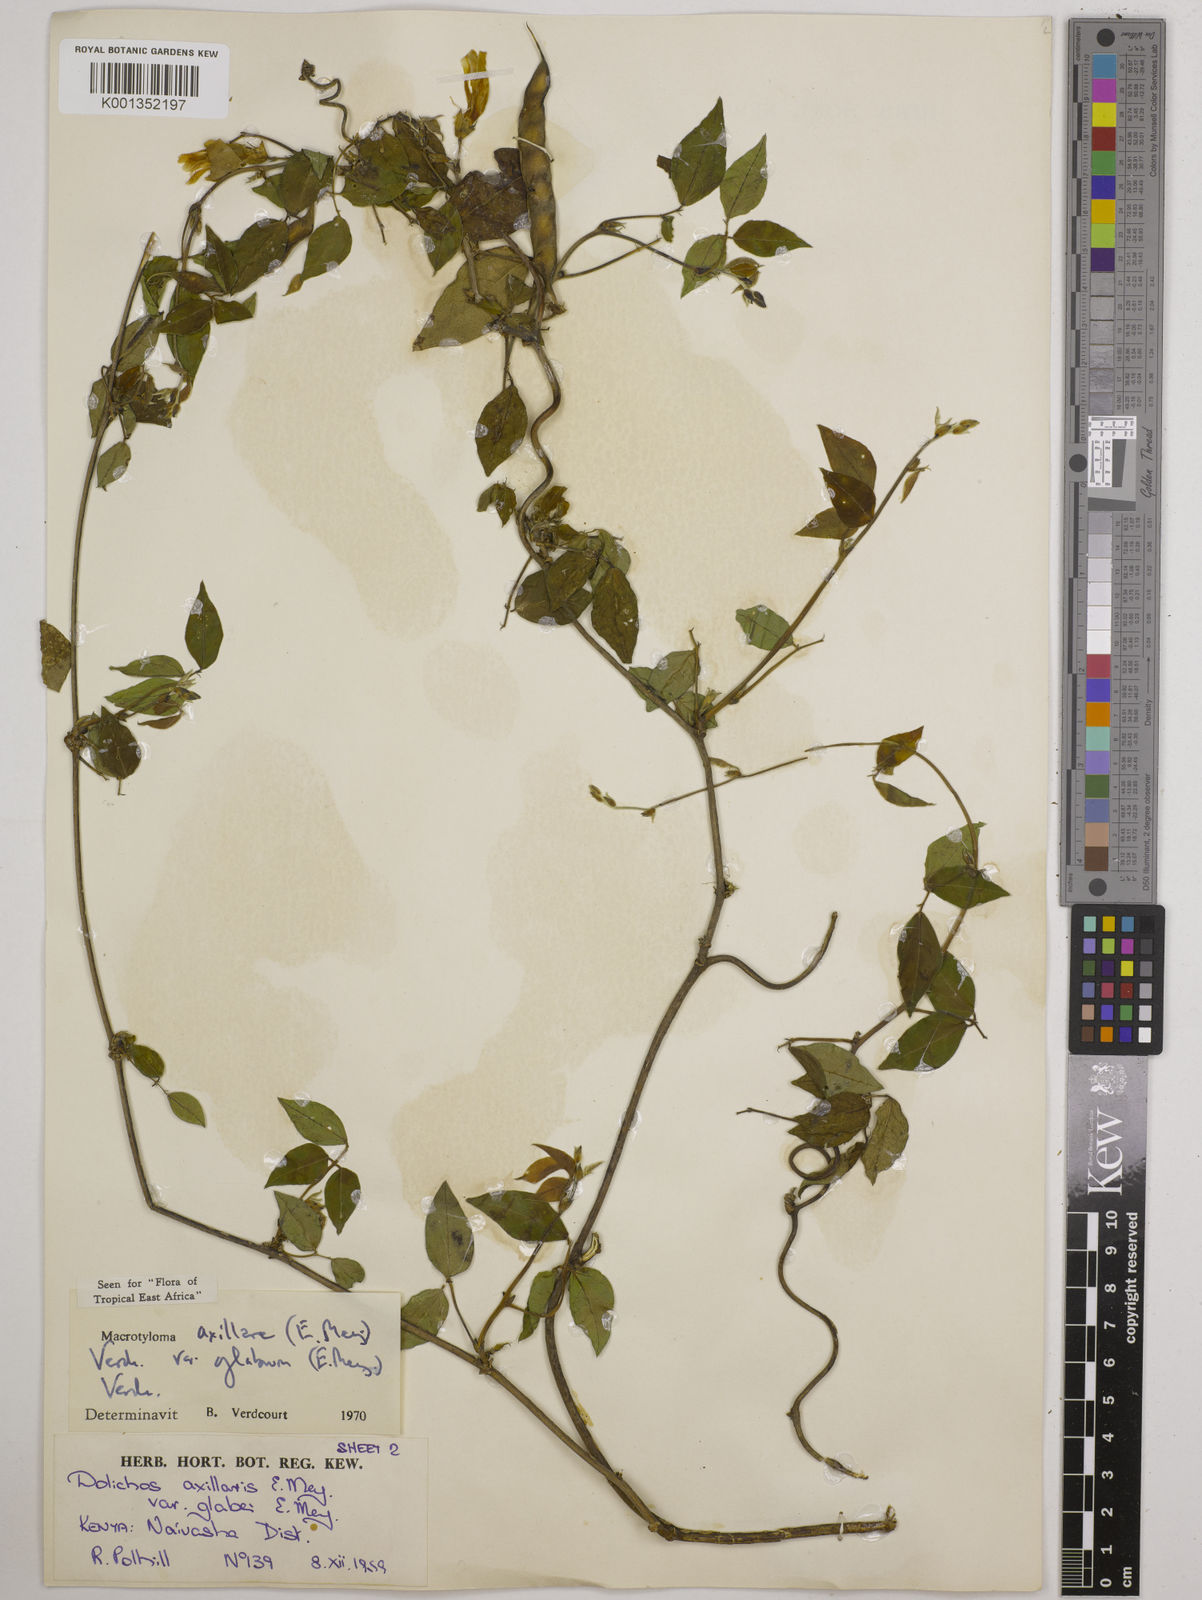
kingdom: Plantae
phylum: Tracheophyta
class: Magnoliopsida
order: Fabales
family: Fabaceae
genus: Macrotyloma
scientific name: Macrotyloma
